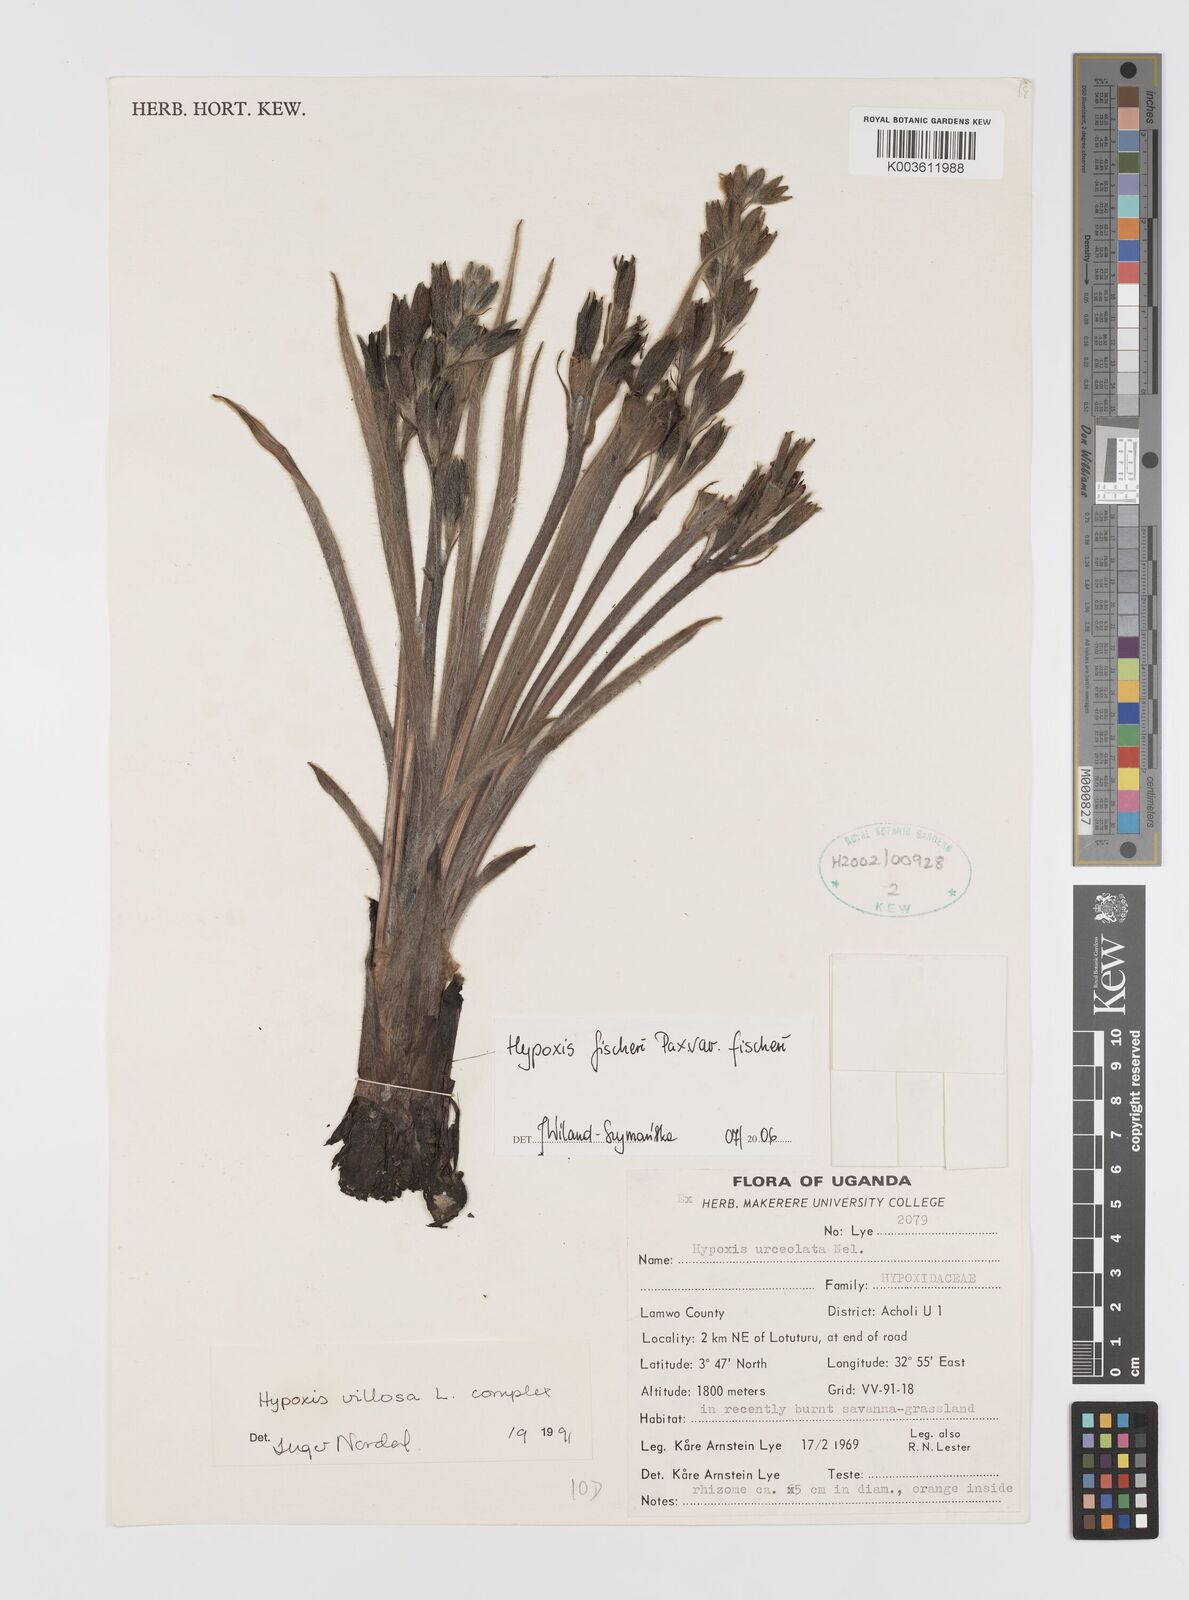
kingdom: Plantae
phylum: Tracheophyta
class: Liliopsida
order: Asparagales
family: Hypoxidaceae
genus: Hypoxis
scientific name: Hypoxis fischeri
